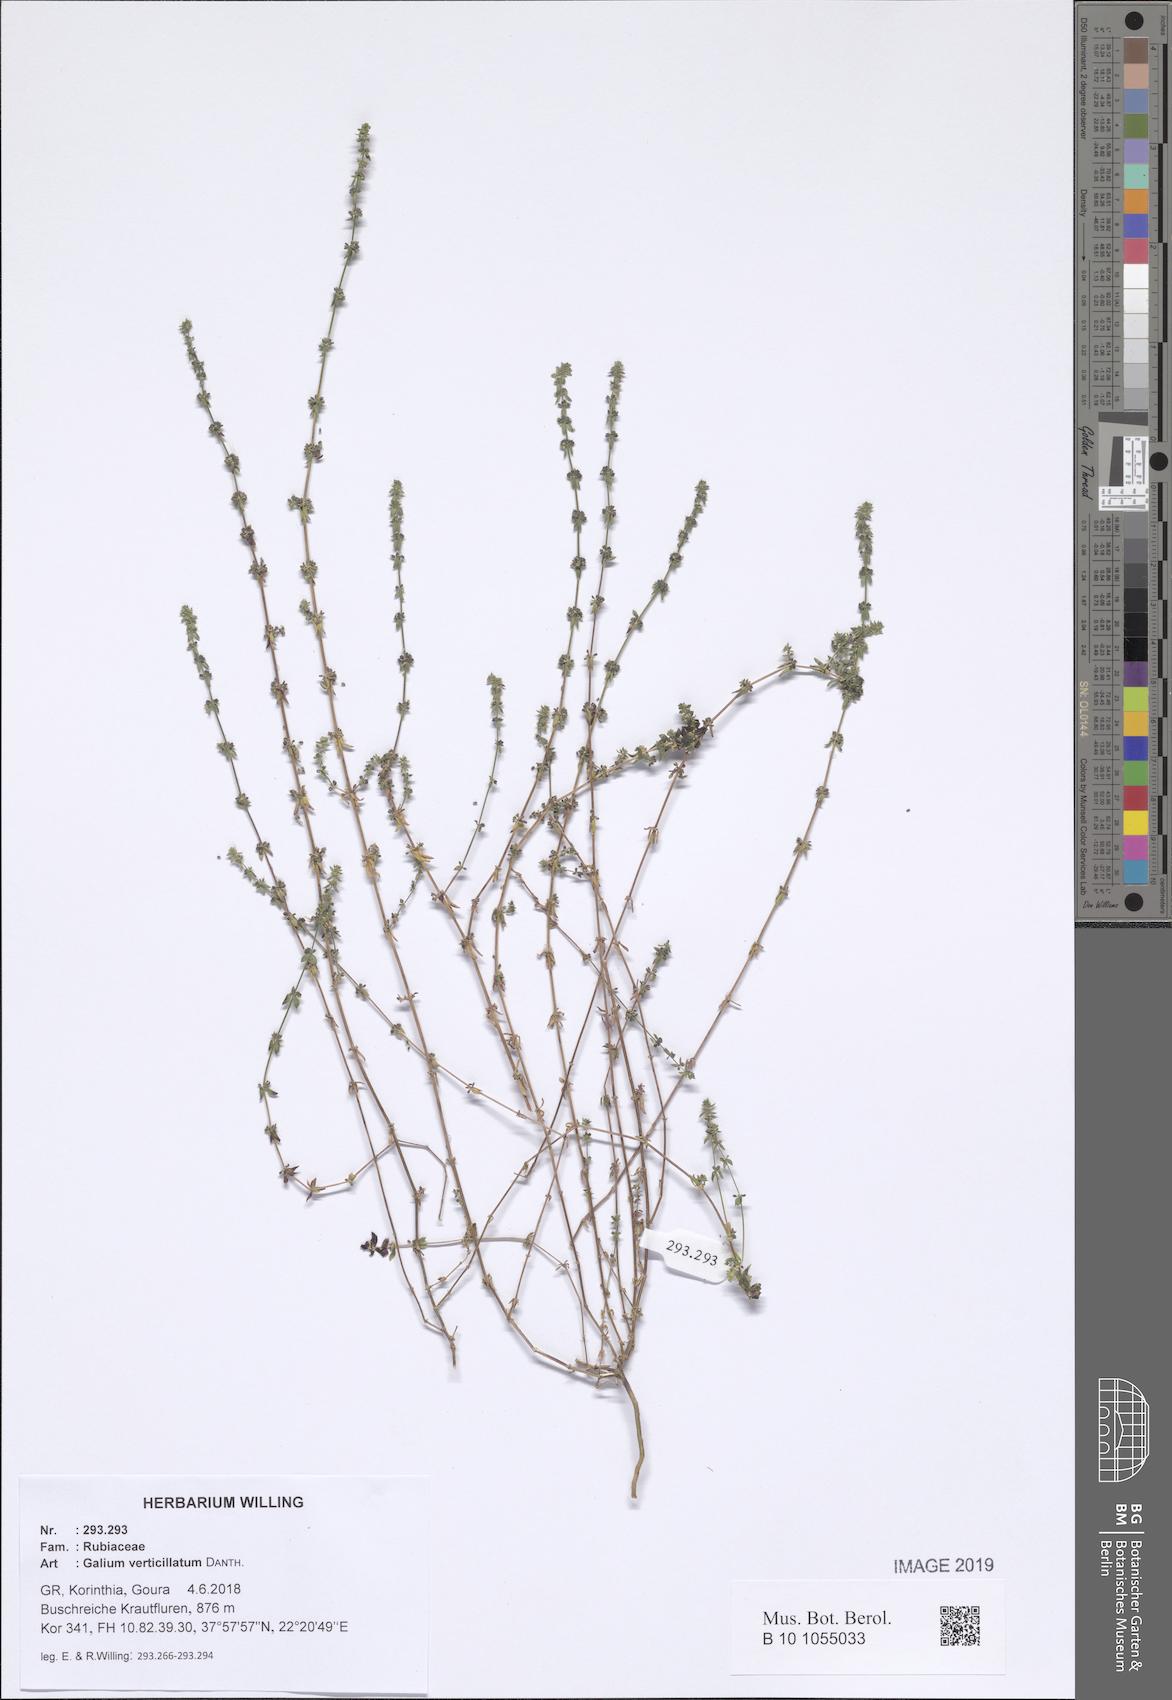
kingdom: Plantae
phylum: Tracheophyta
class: Magnoliopsida
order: Gentianales
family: Rubiaceae
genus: Galium
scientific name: Galium verticillatum
